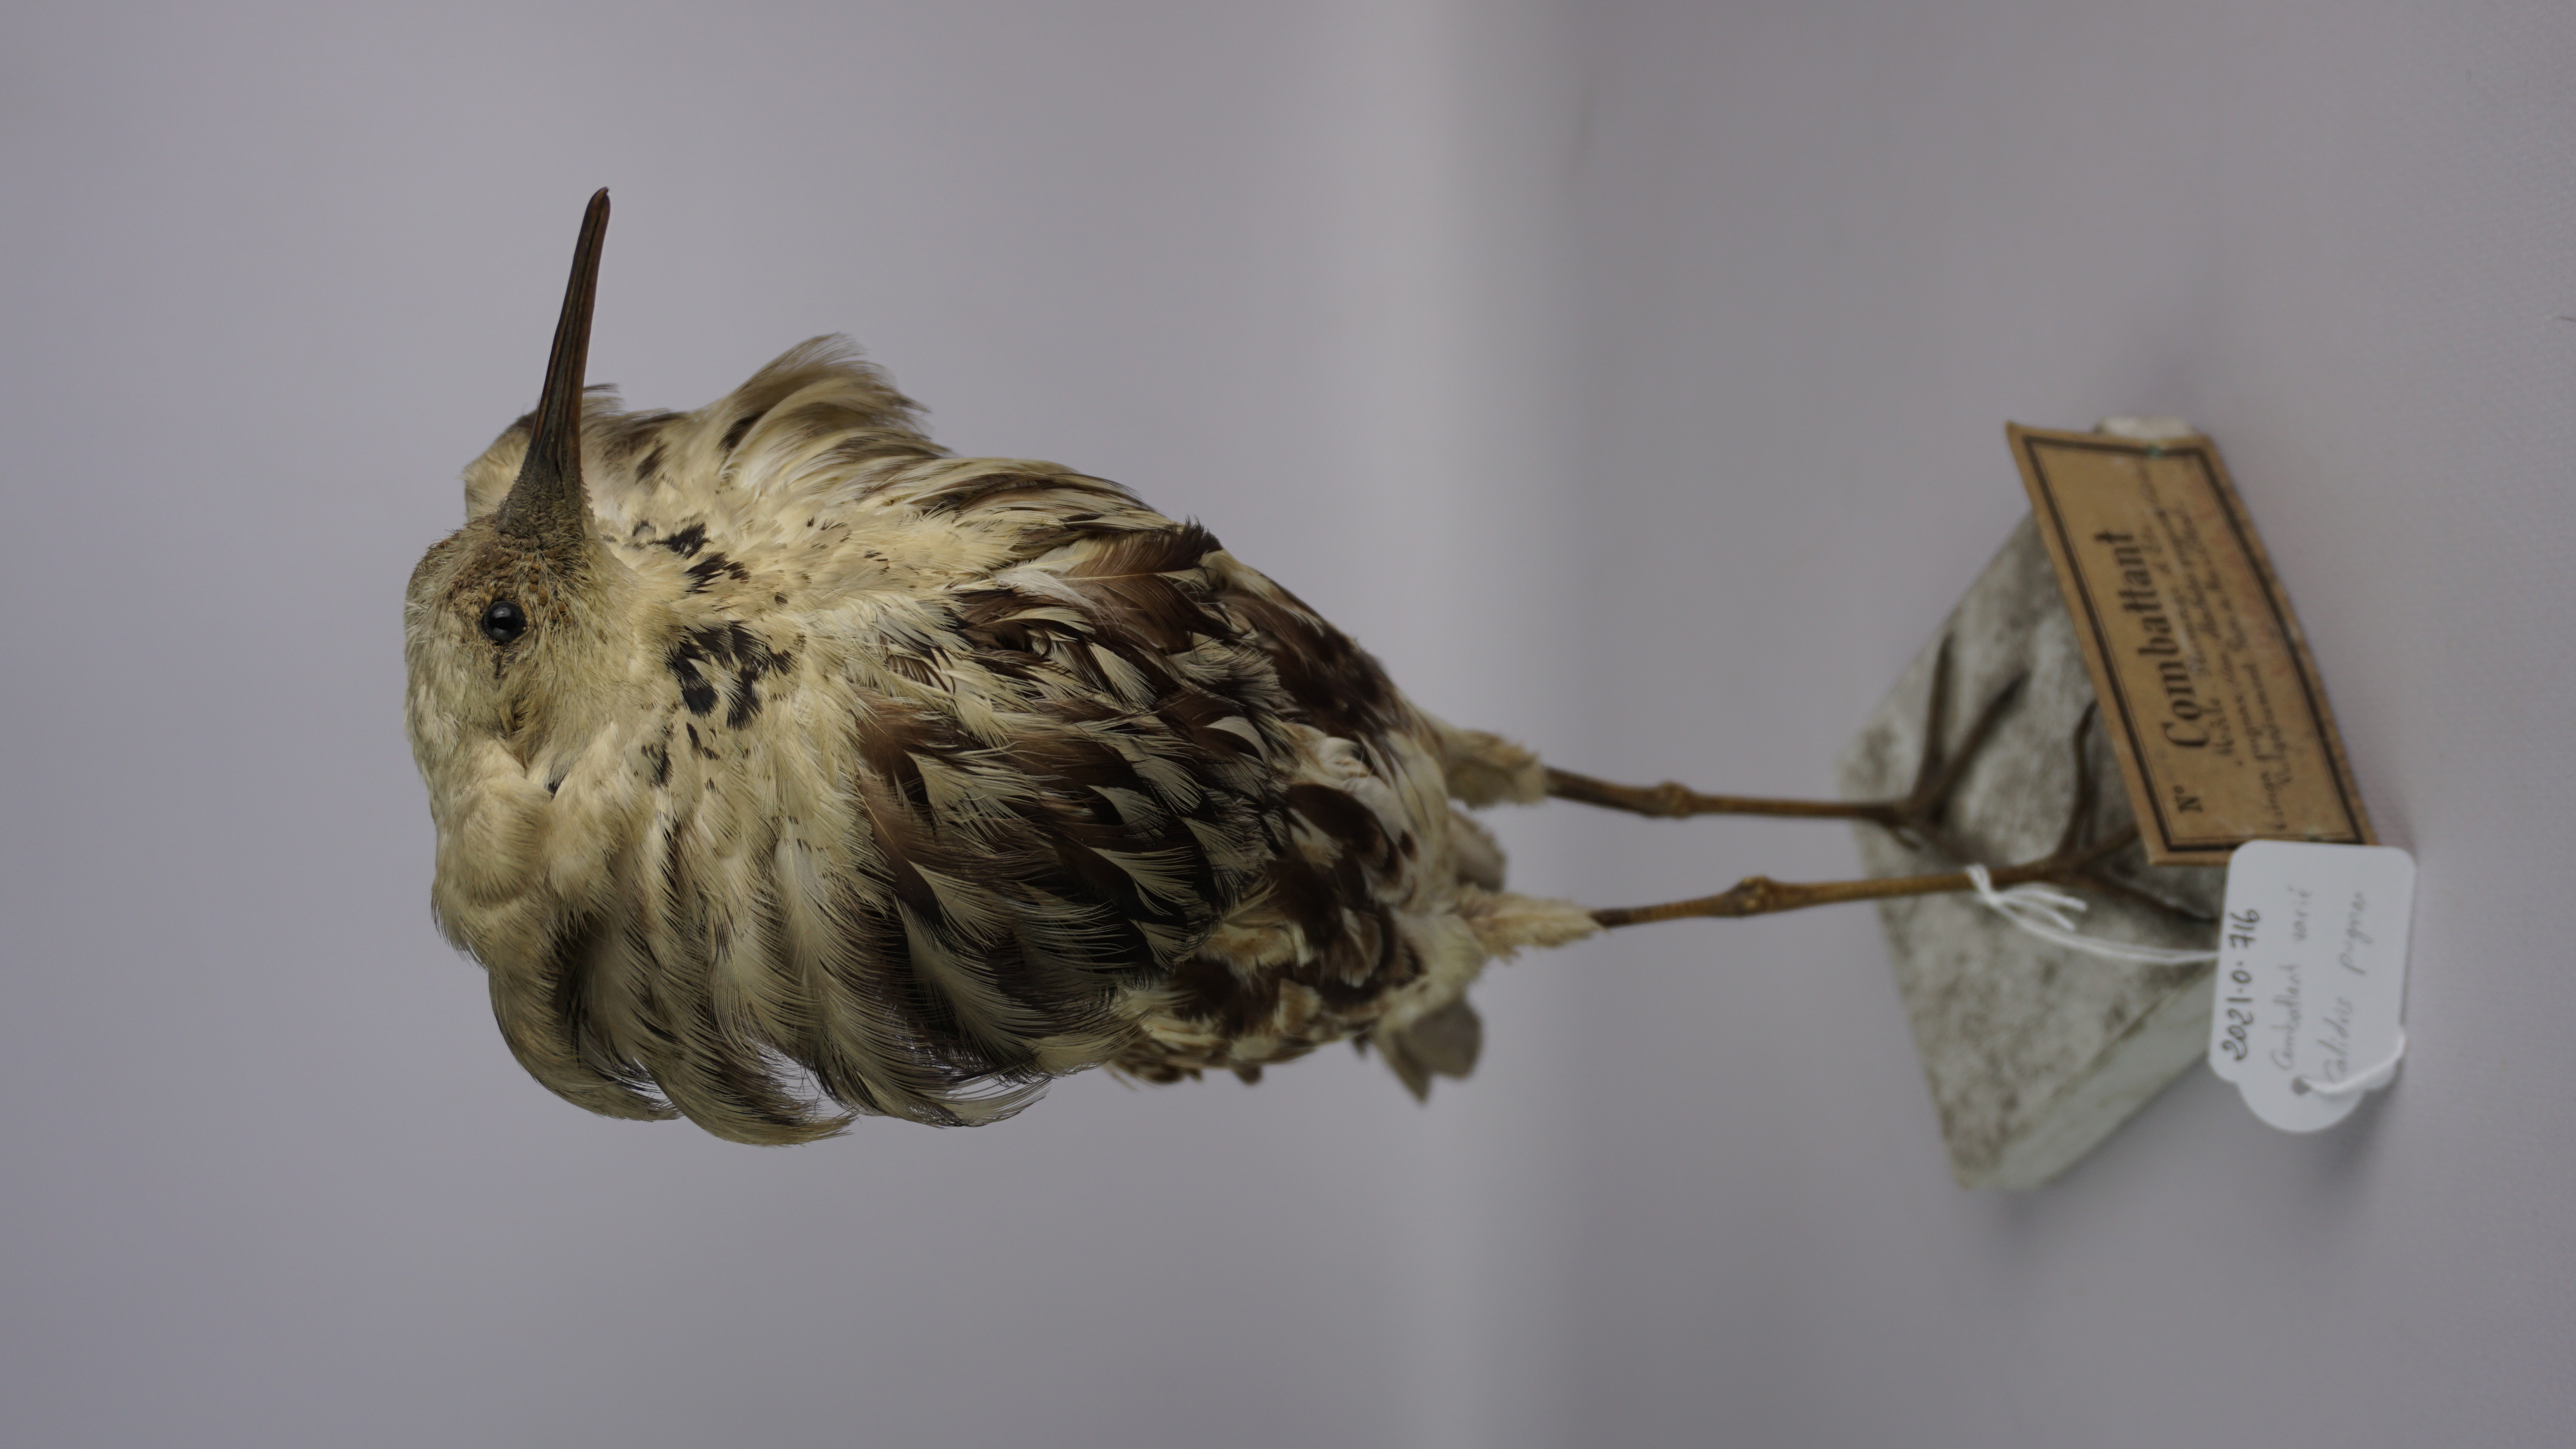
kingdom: Animalia
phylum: Chordata
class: Aves
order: Charadriiformes
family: Scolopacidae
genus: Calidris
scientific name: Calidris pugnax
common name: Ruff
